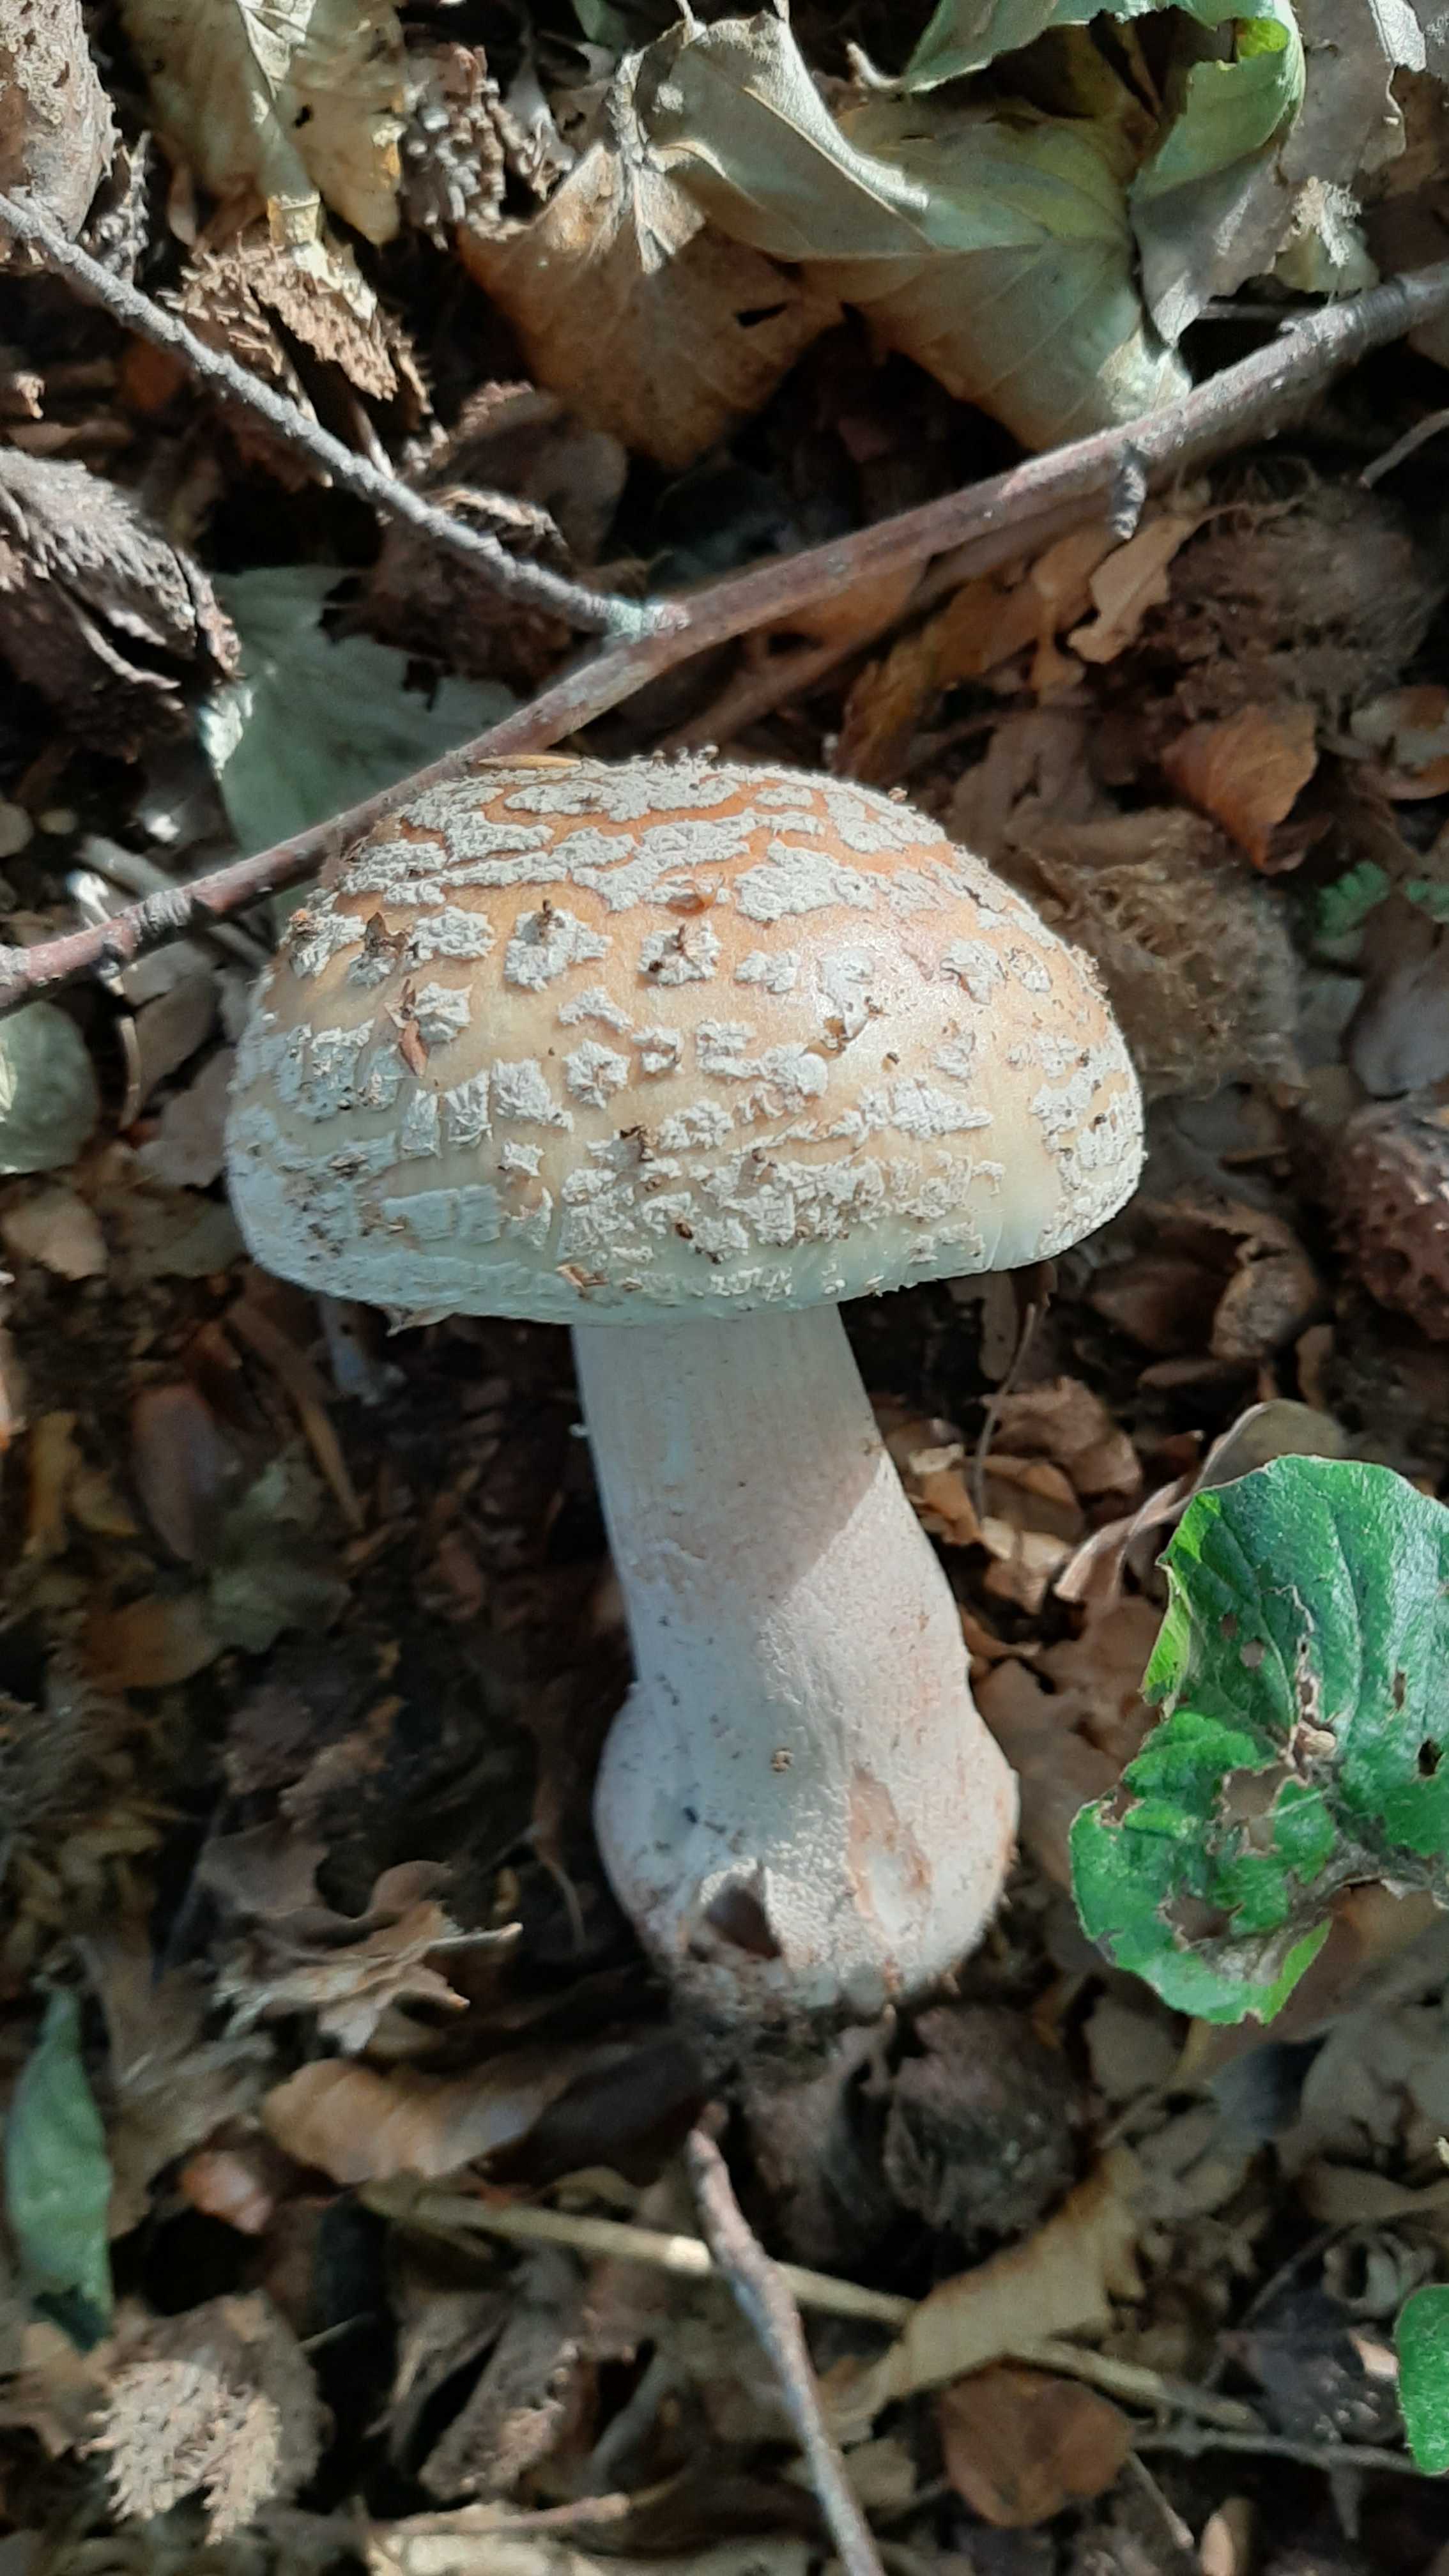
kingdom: Fungi
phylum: Basidiomycota
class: Agaricomycetes
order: Agaricales
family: Amanitaceae
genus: Amanita
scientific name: Amanita rubescens
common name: rødmende fluesvamp
